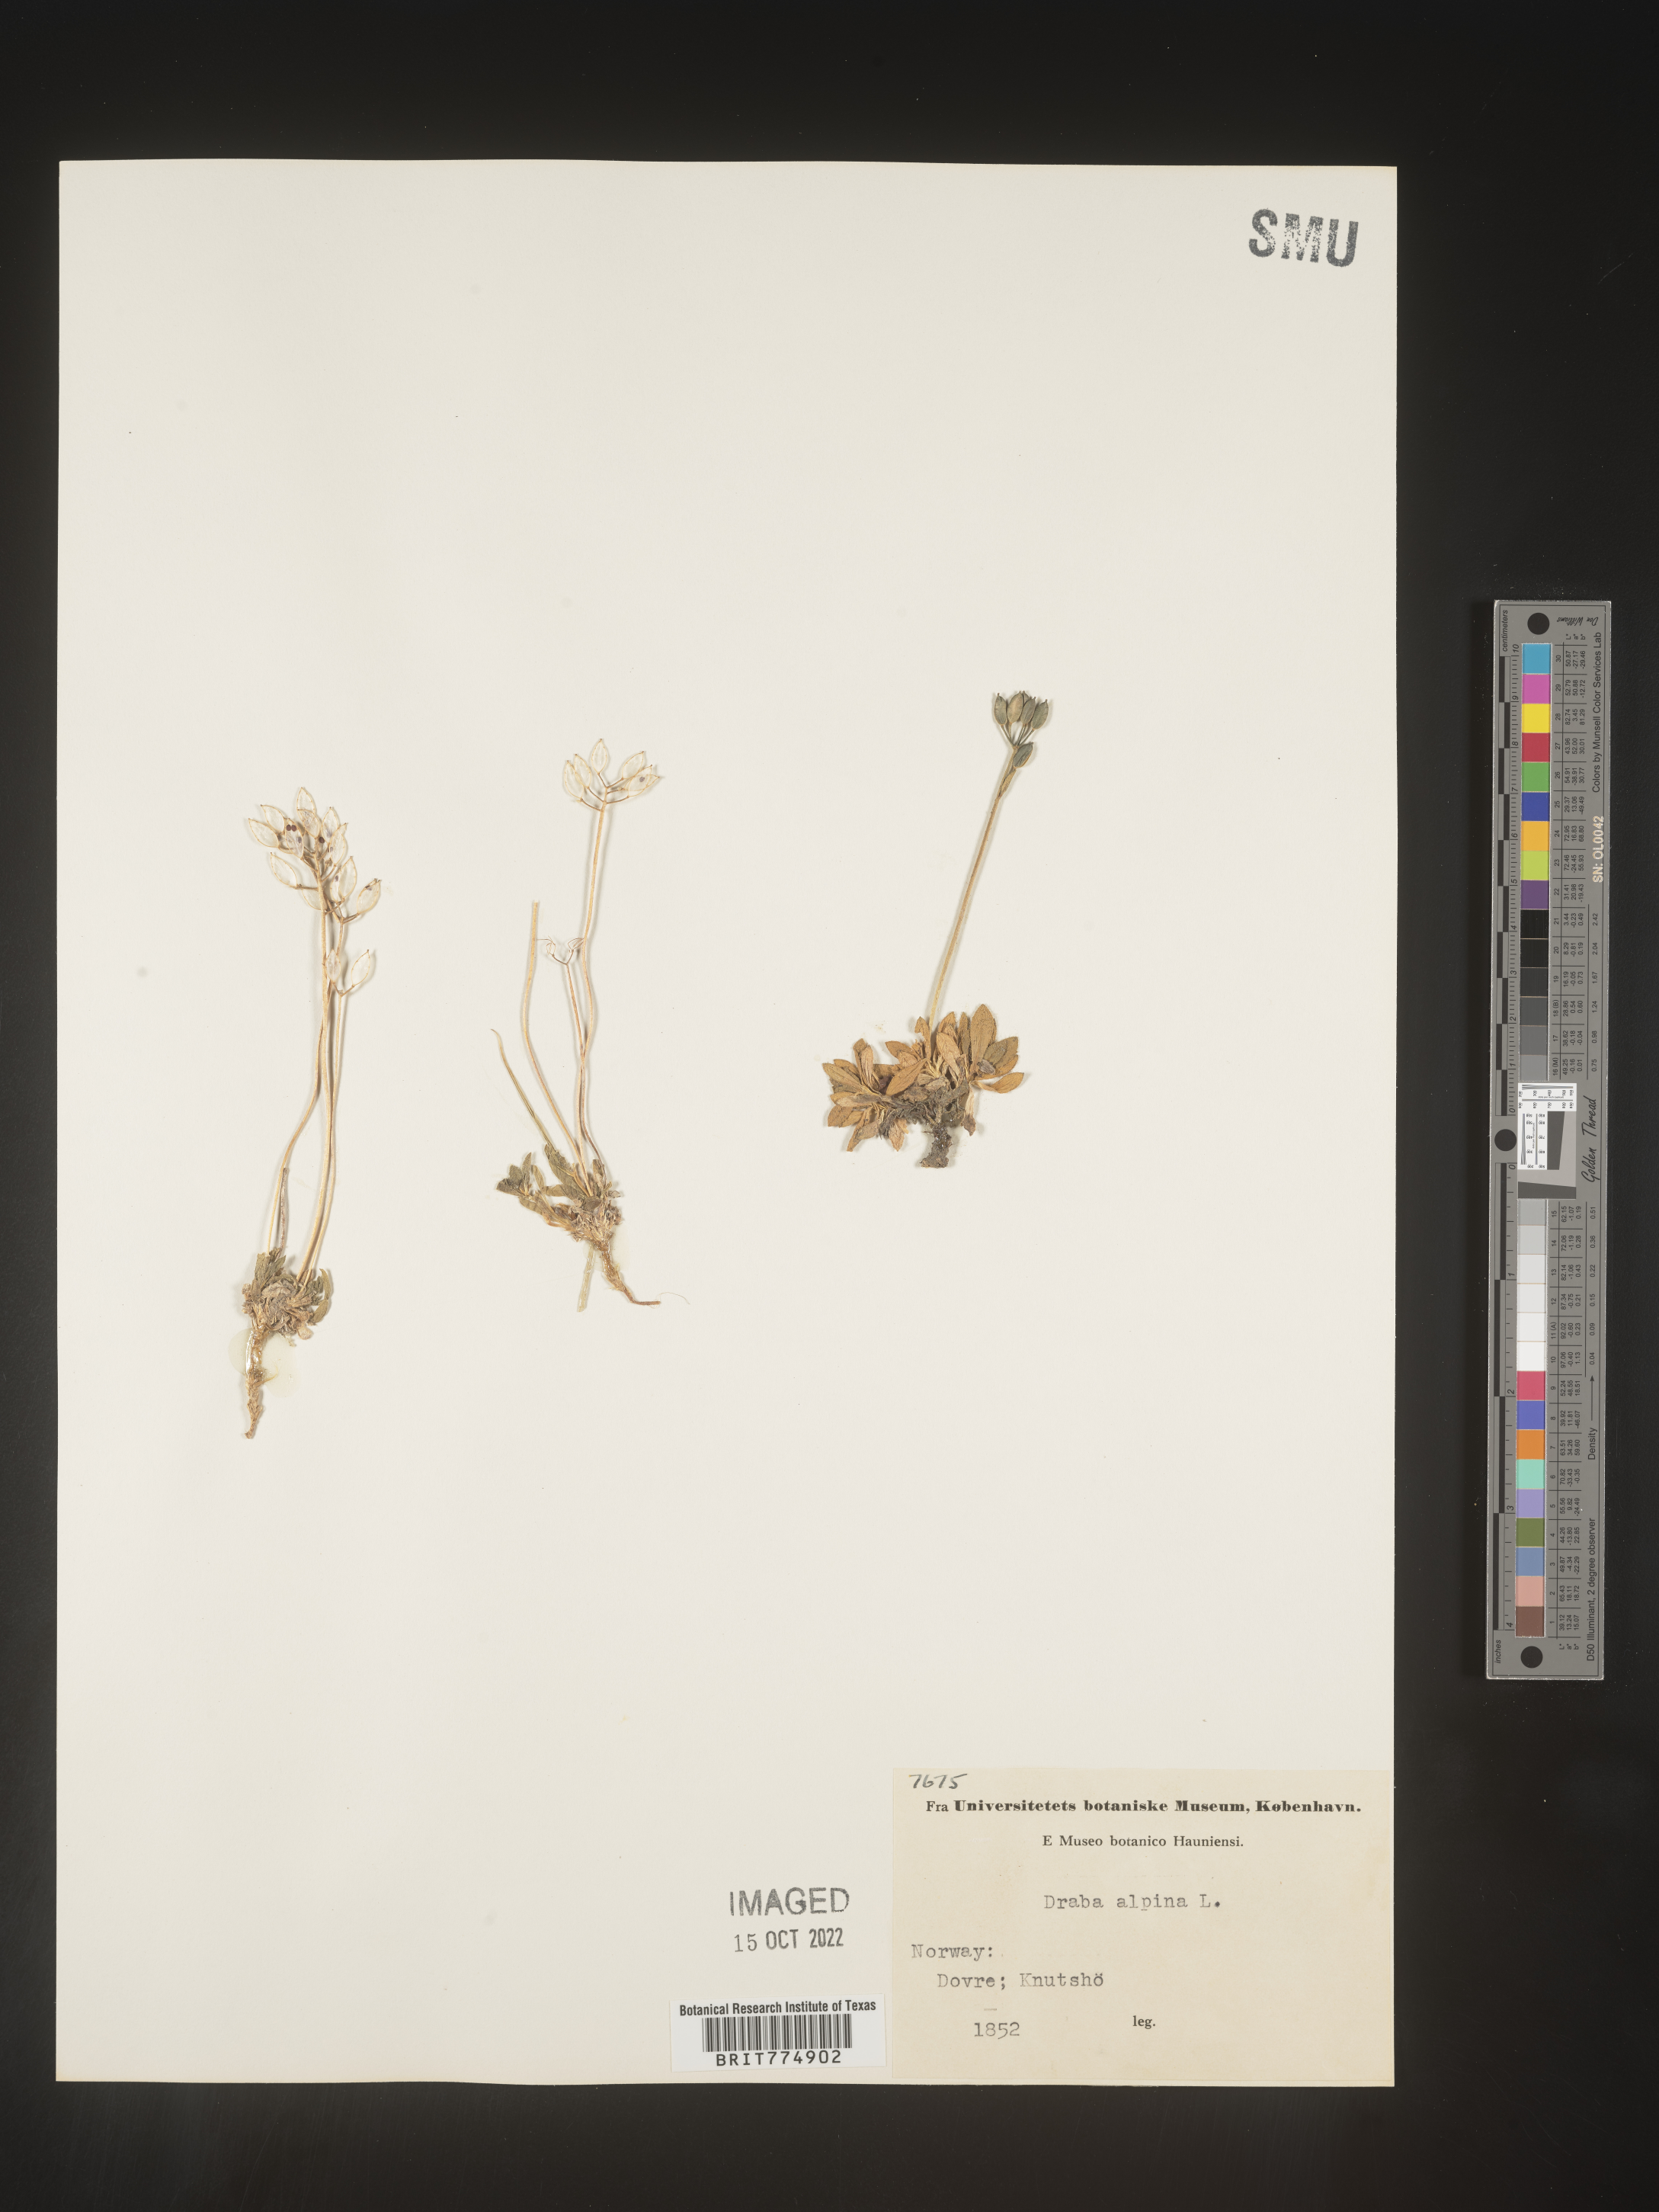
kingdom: Plantae
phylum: Tracheophyta
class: Magnoliopsida
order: Brassicales
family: Brassicaceae
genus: Draba
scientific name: Draba
